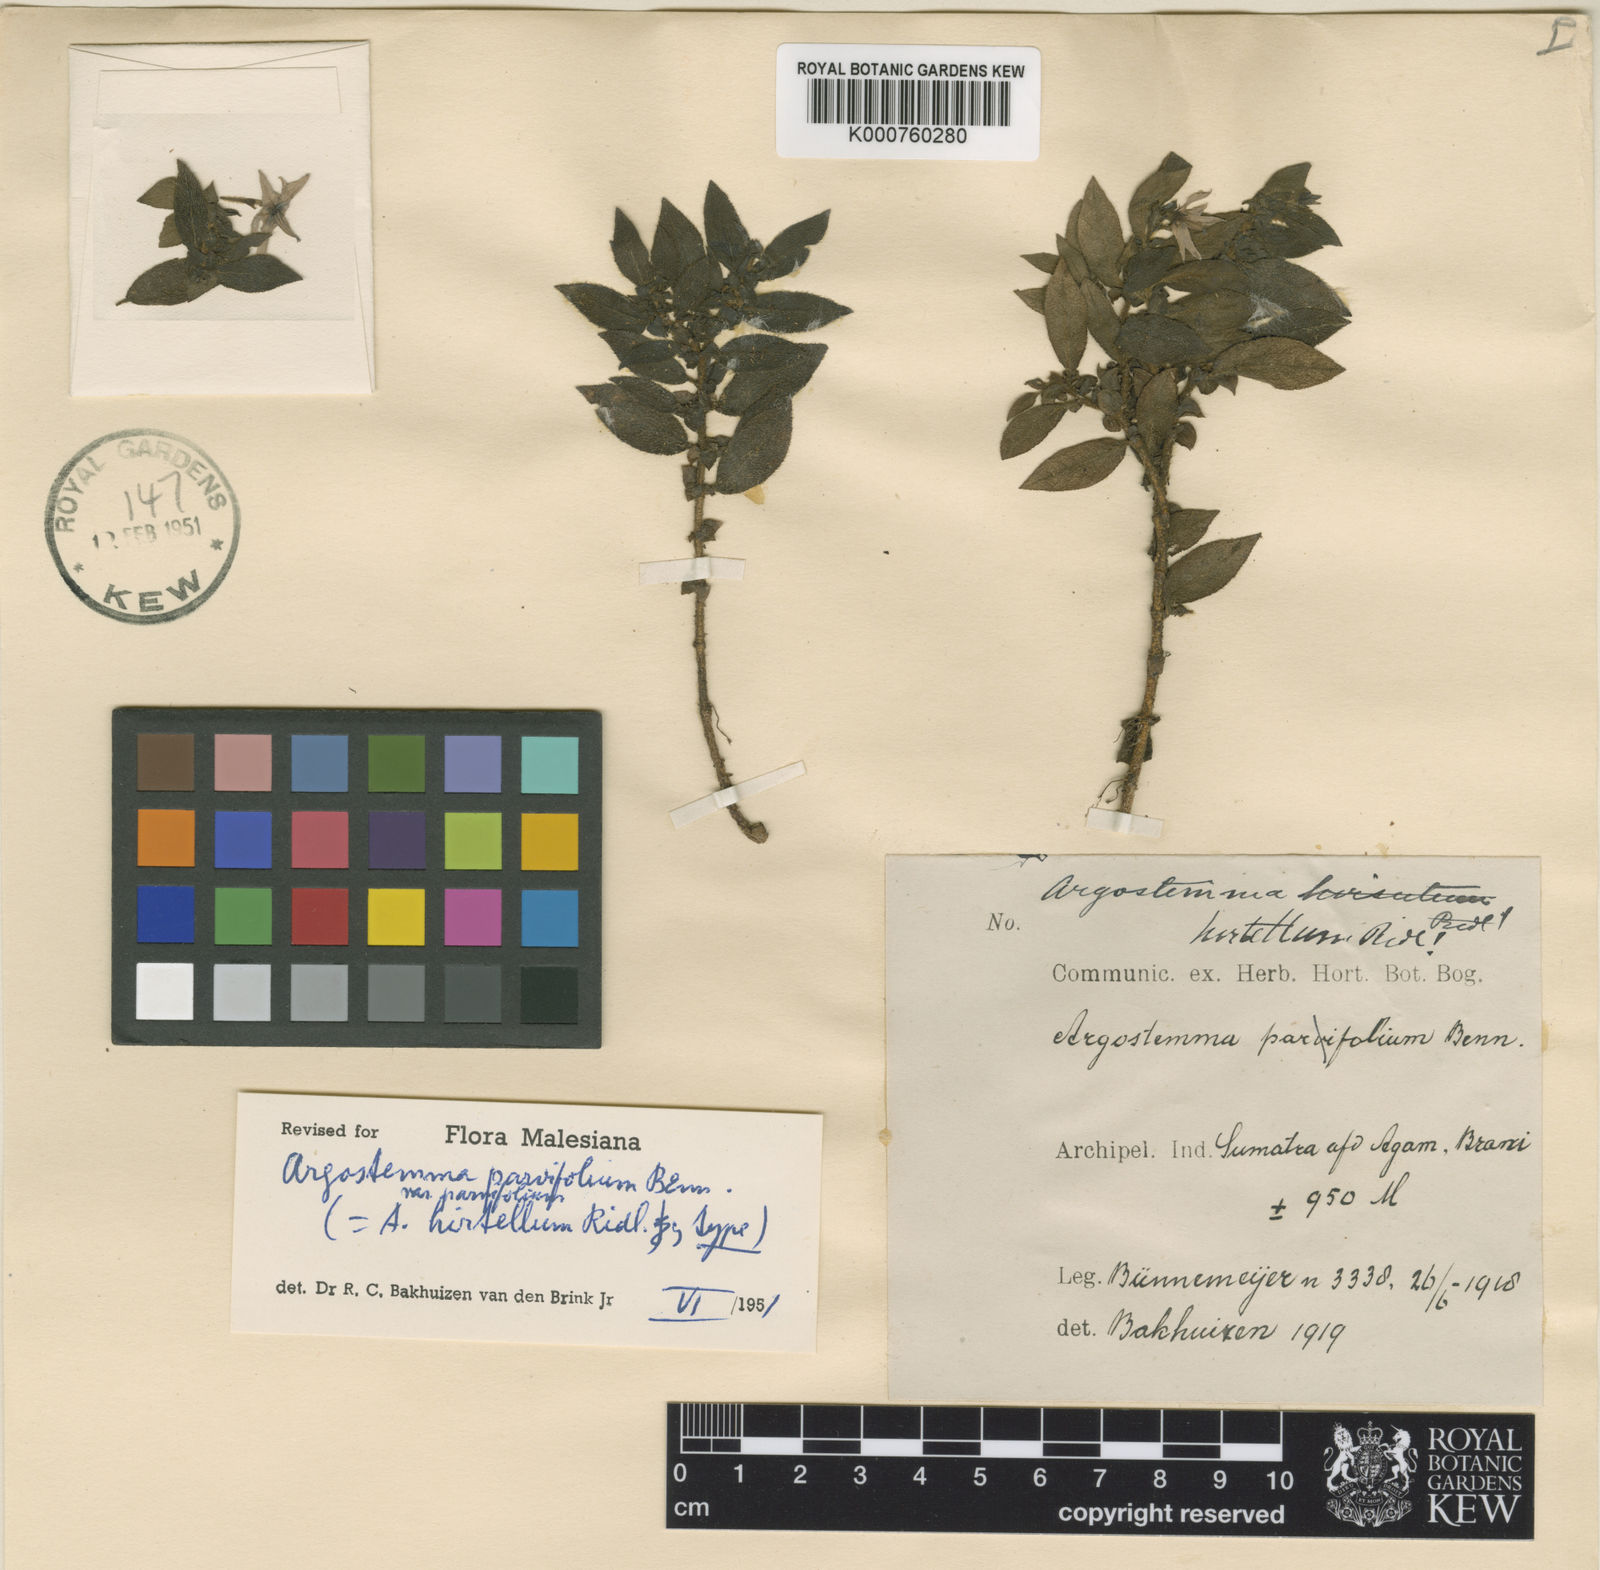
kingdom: Plantae
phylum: Tracheophyta
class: Magnoliopsida
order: Gentianales
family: Rubiaceae
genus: Argostemma
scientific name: Argostemma parvifolium
